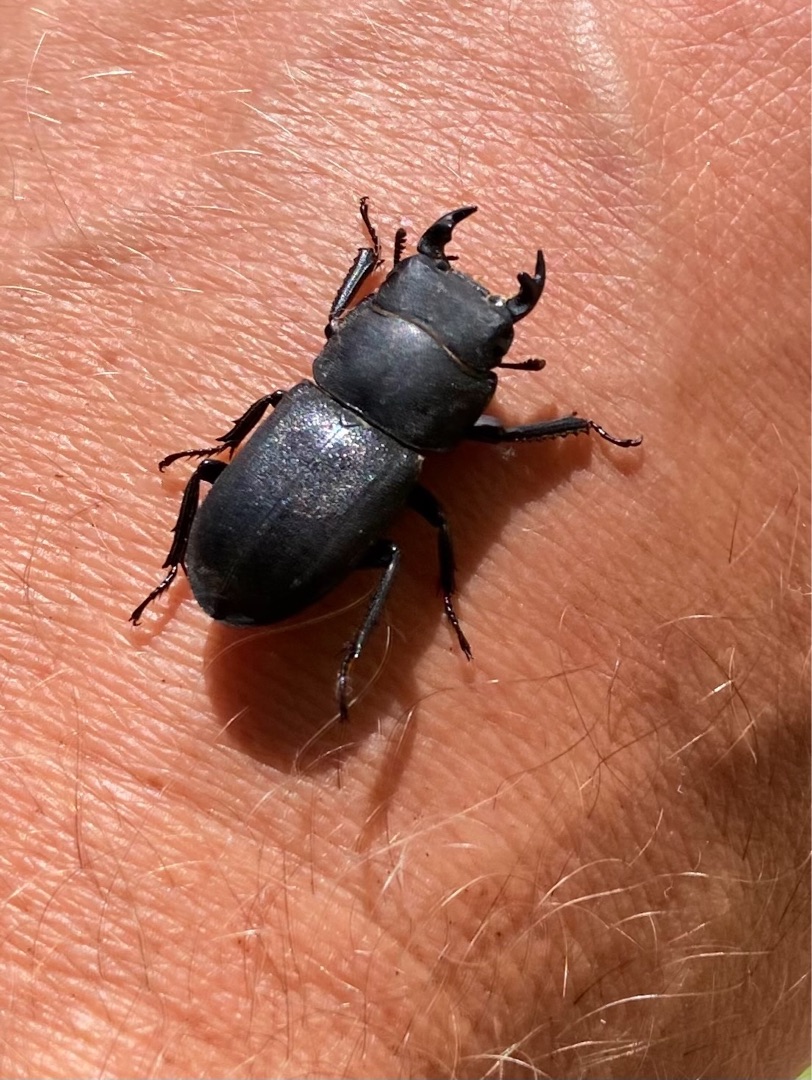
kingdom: Animalia
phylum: Arthropoda
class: Insecta
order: Coleoptera
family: Lucanidae
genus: Dorcus
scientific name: Dorcus parallelipipedus
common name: Bøghjort
